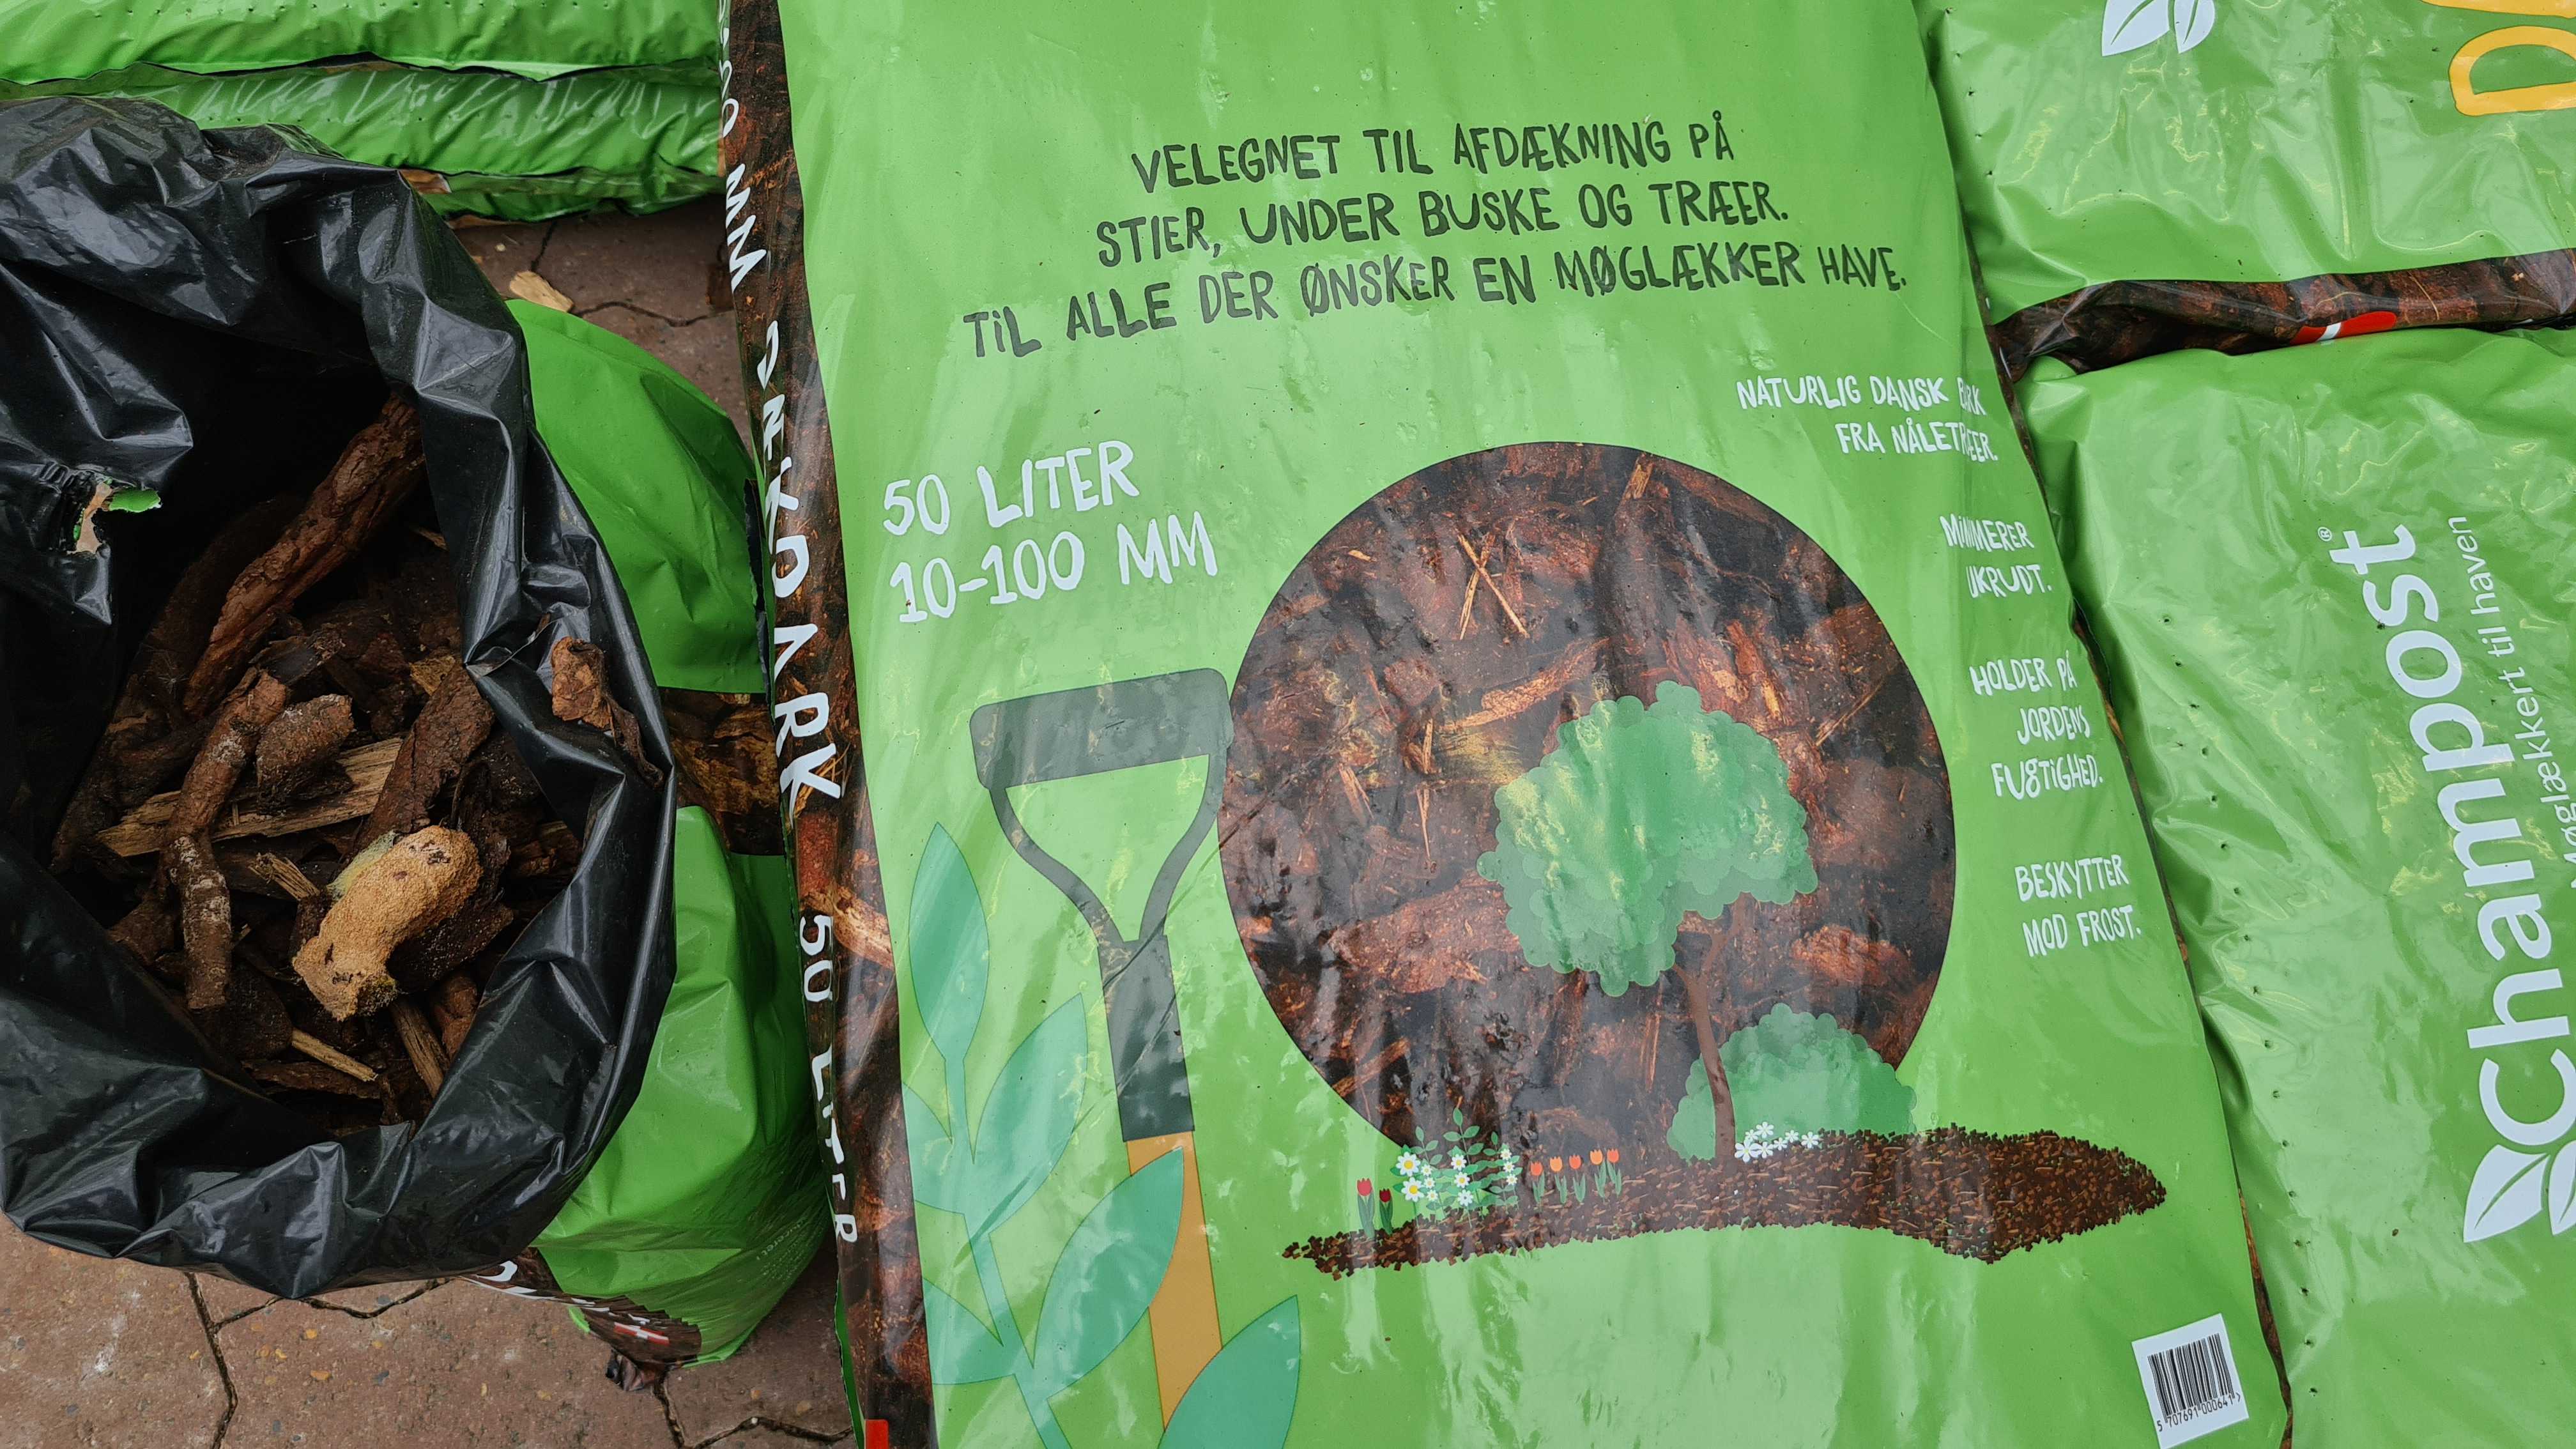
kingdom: Protozoa
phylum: Mycetozoa
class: Myxomycetes
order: Physarales
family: Physaraceae
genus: Fuligo
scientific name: Fuligo septica
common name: Dog vomit slime mold
